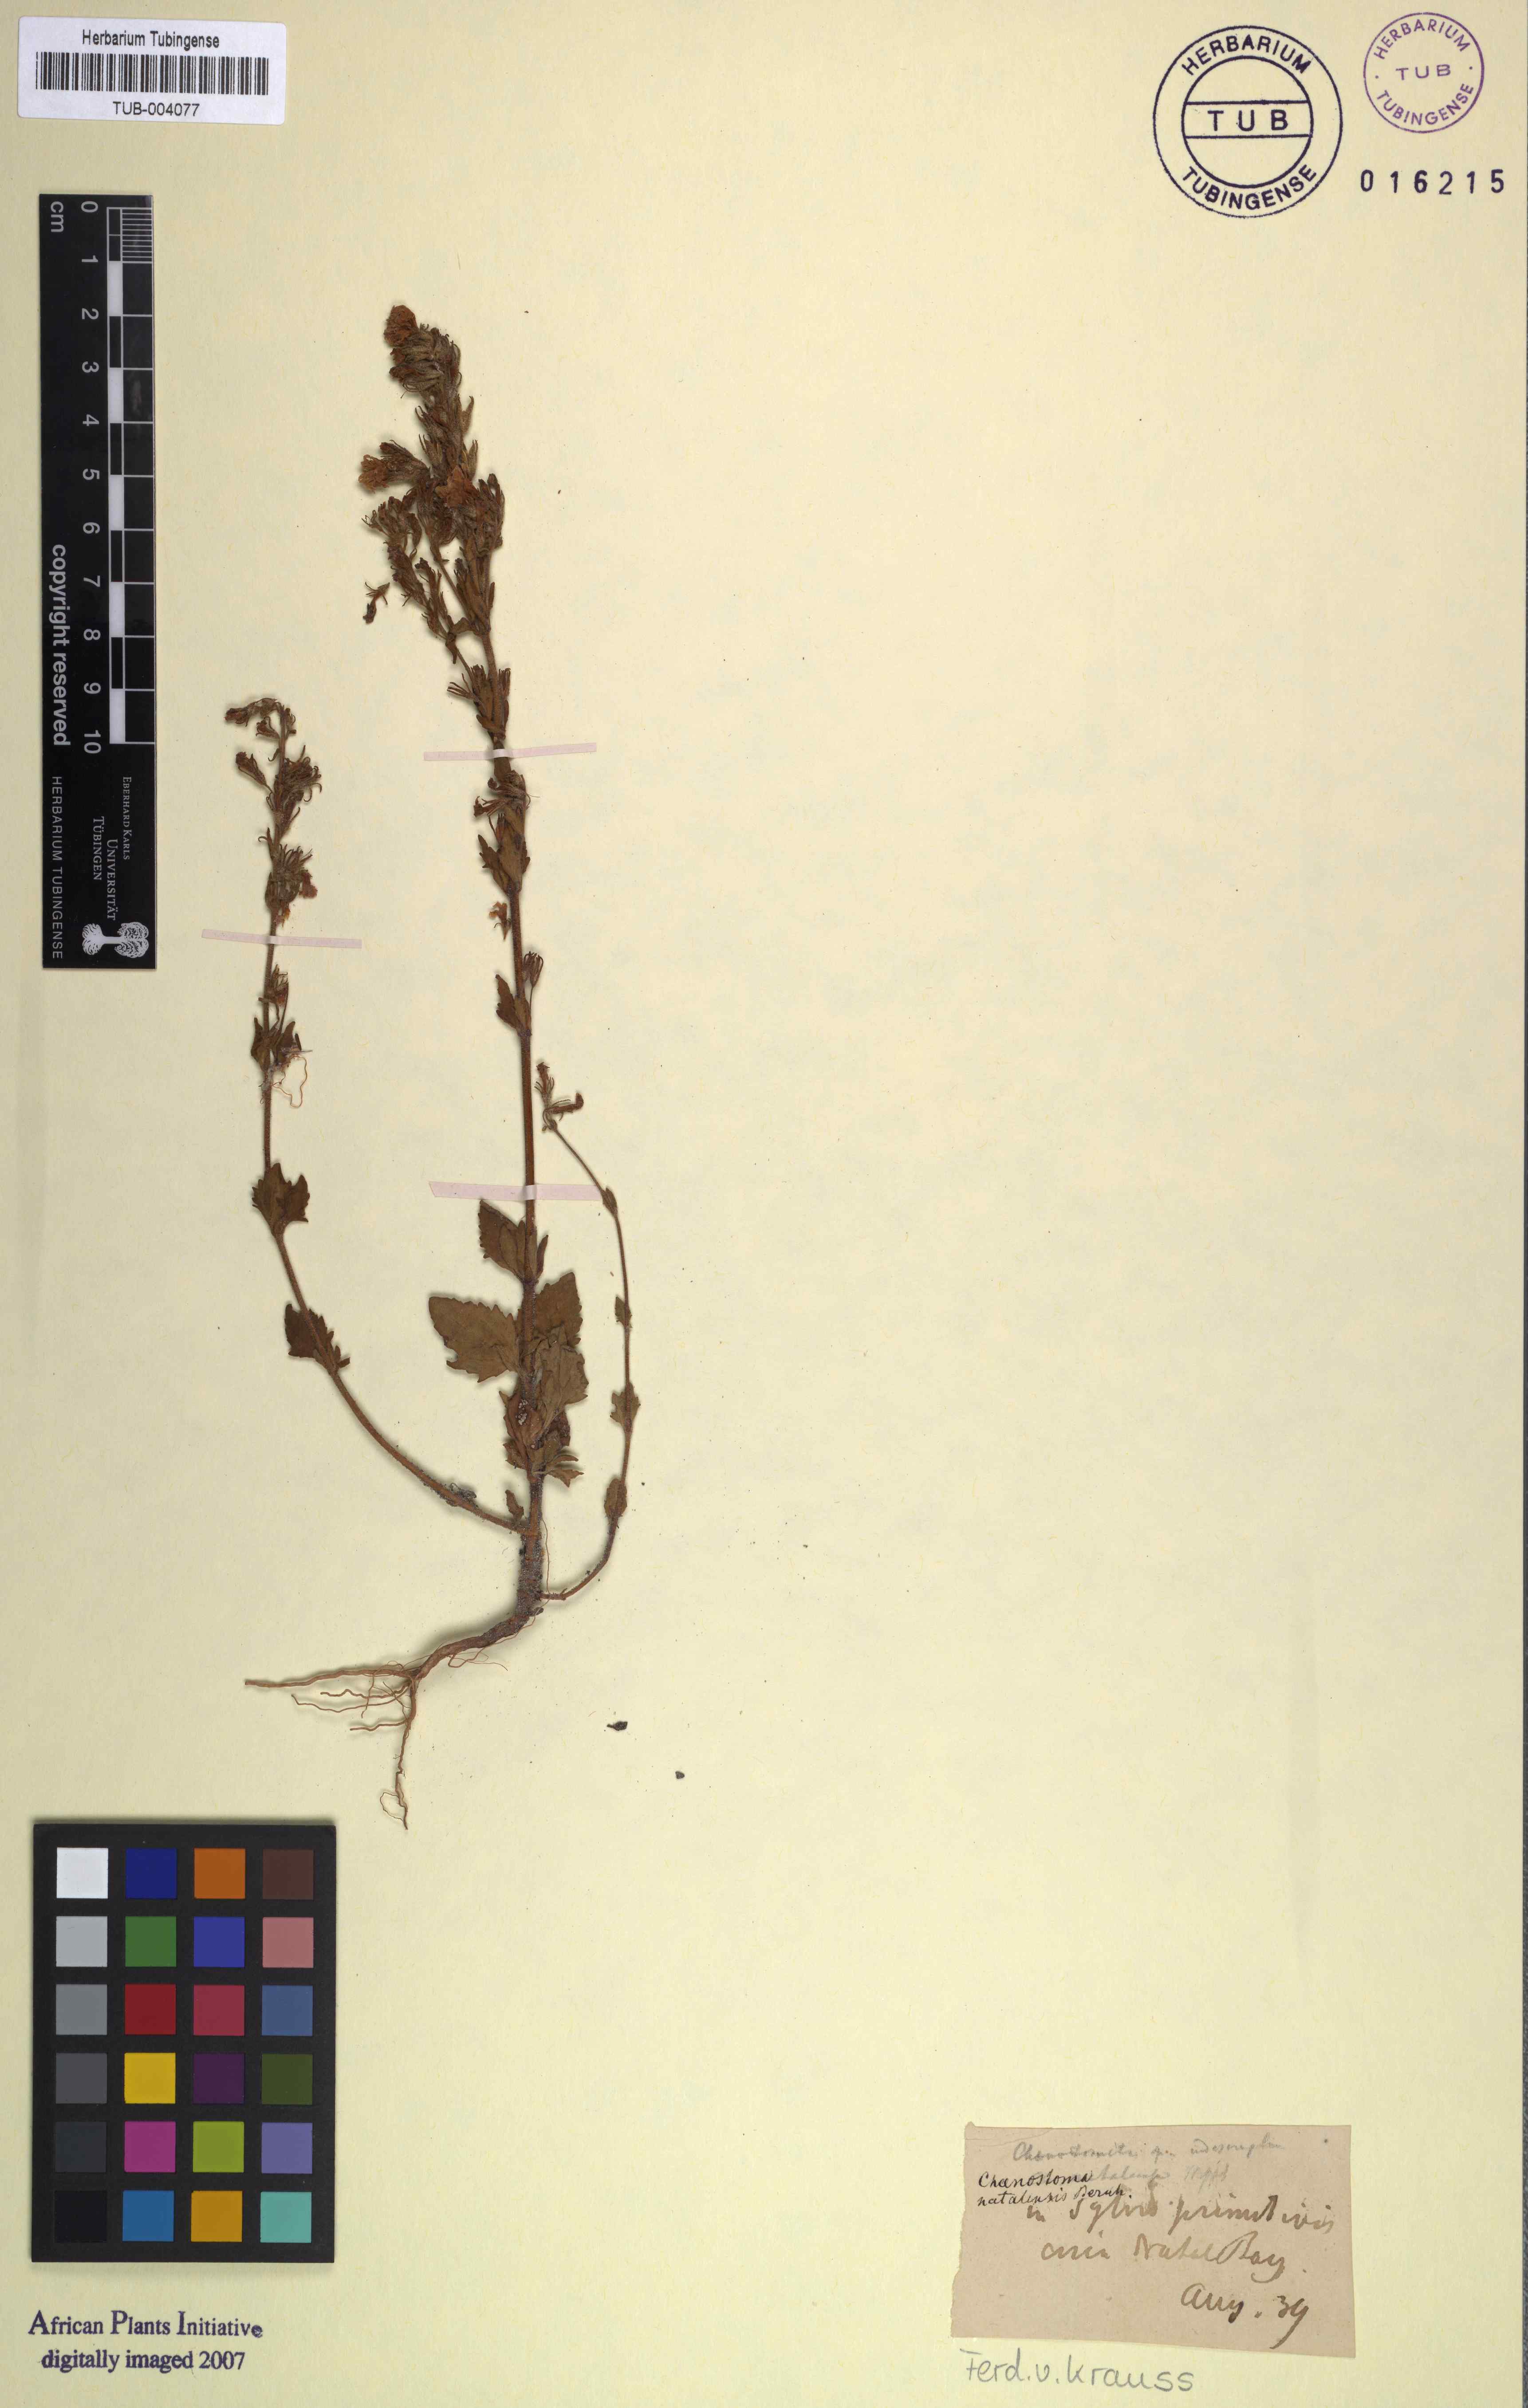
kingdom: Plantae
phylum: Tracheophyta
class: Magnoliopsida
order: Lamiales
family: Scrophulariaceae
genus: Chaenostoma
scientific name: Chaenostoma floribundum
